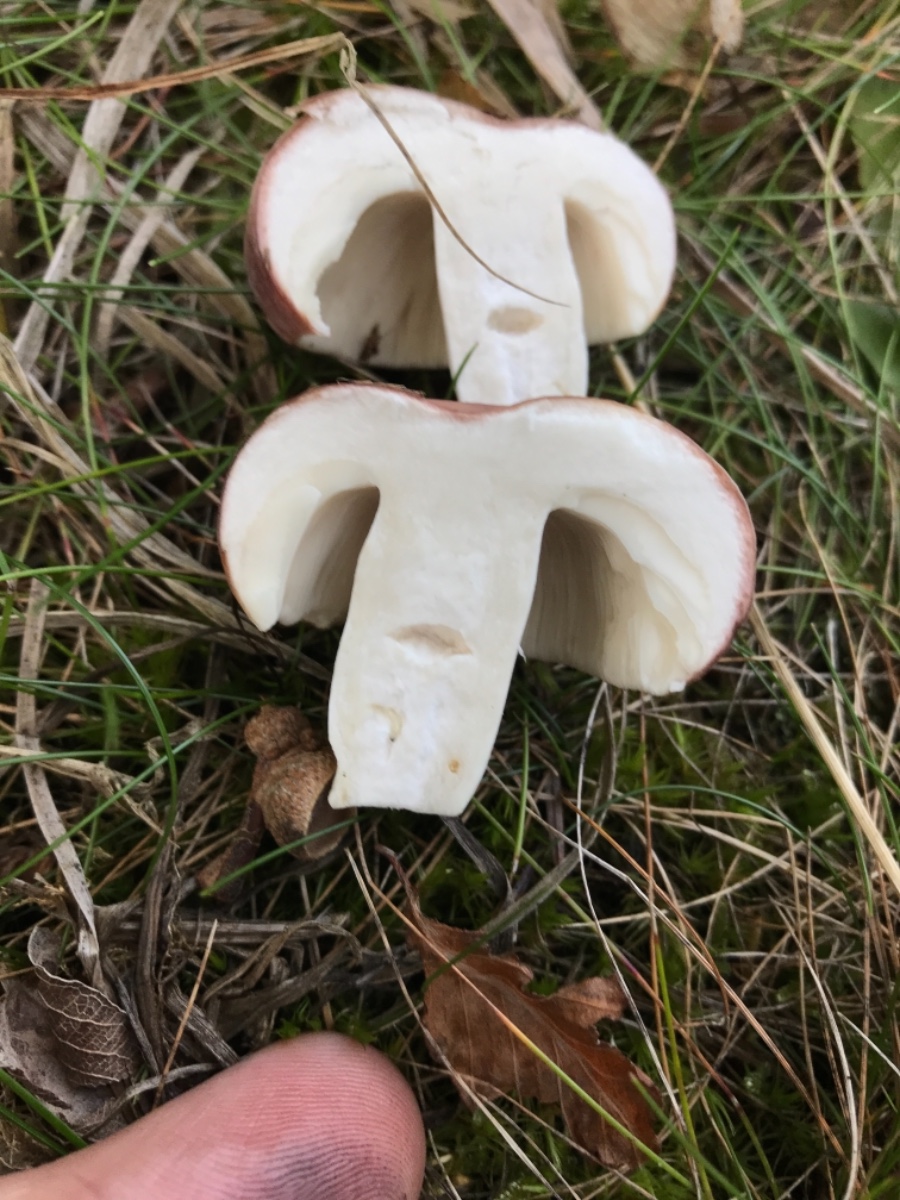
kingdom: Fungi
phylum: Basidiomycota
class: Agaricomycetes
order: Russulales
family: Russulaceae
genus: Russula
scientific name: Russula vesca
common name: spiselig skørhat
